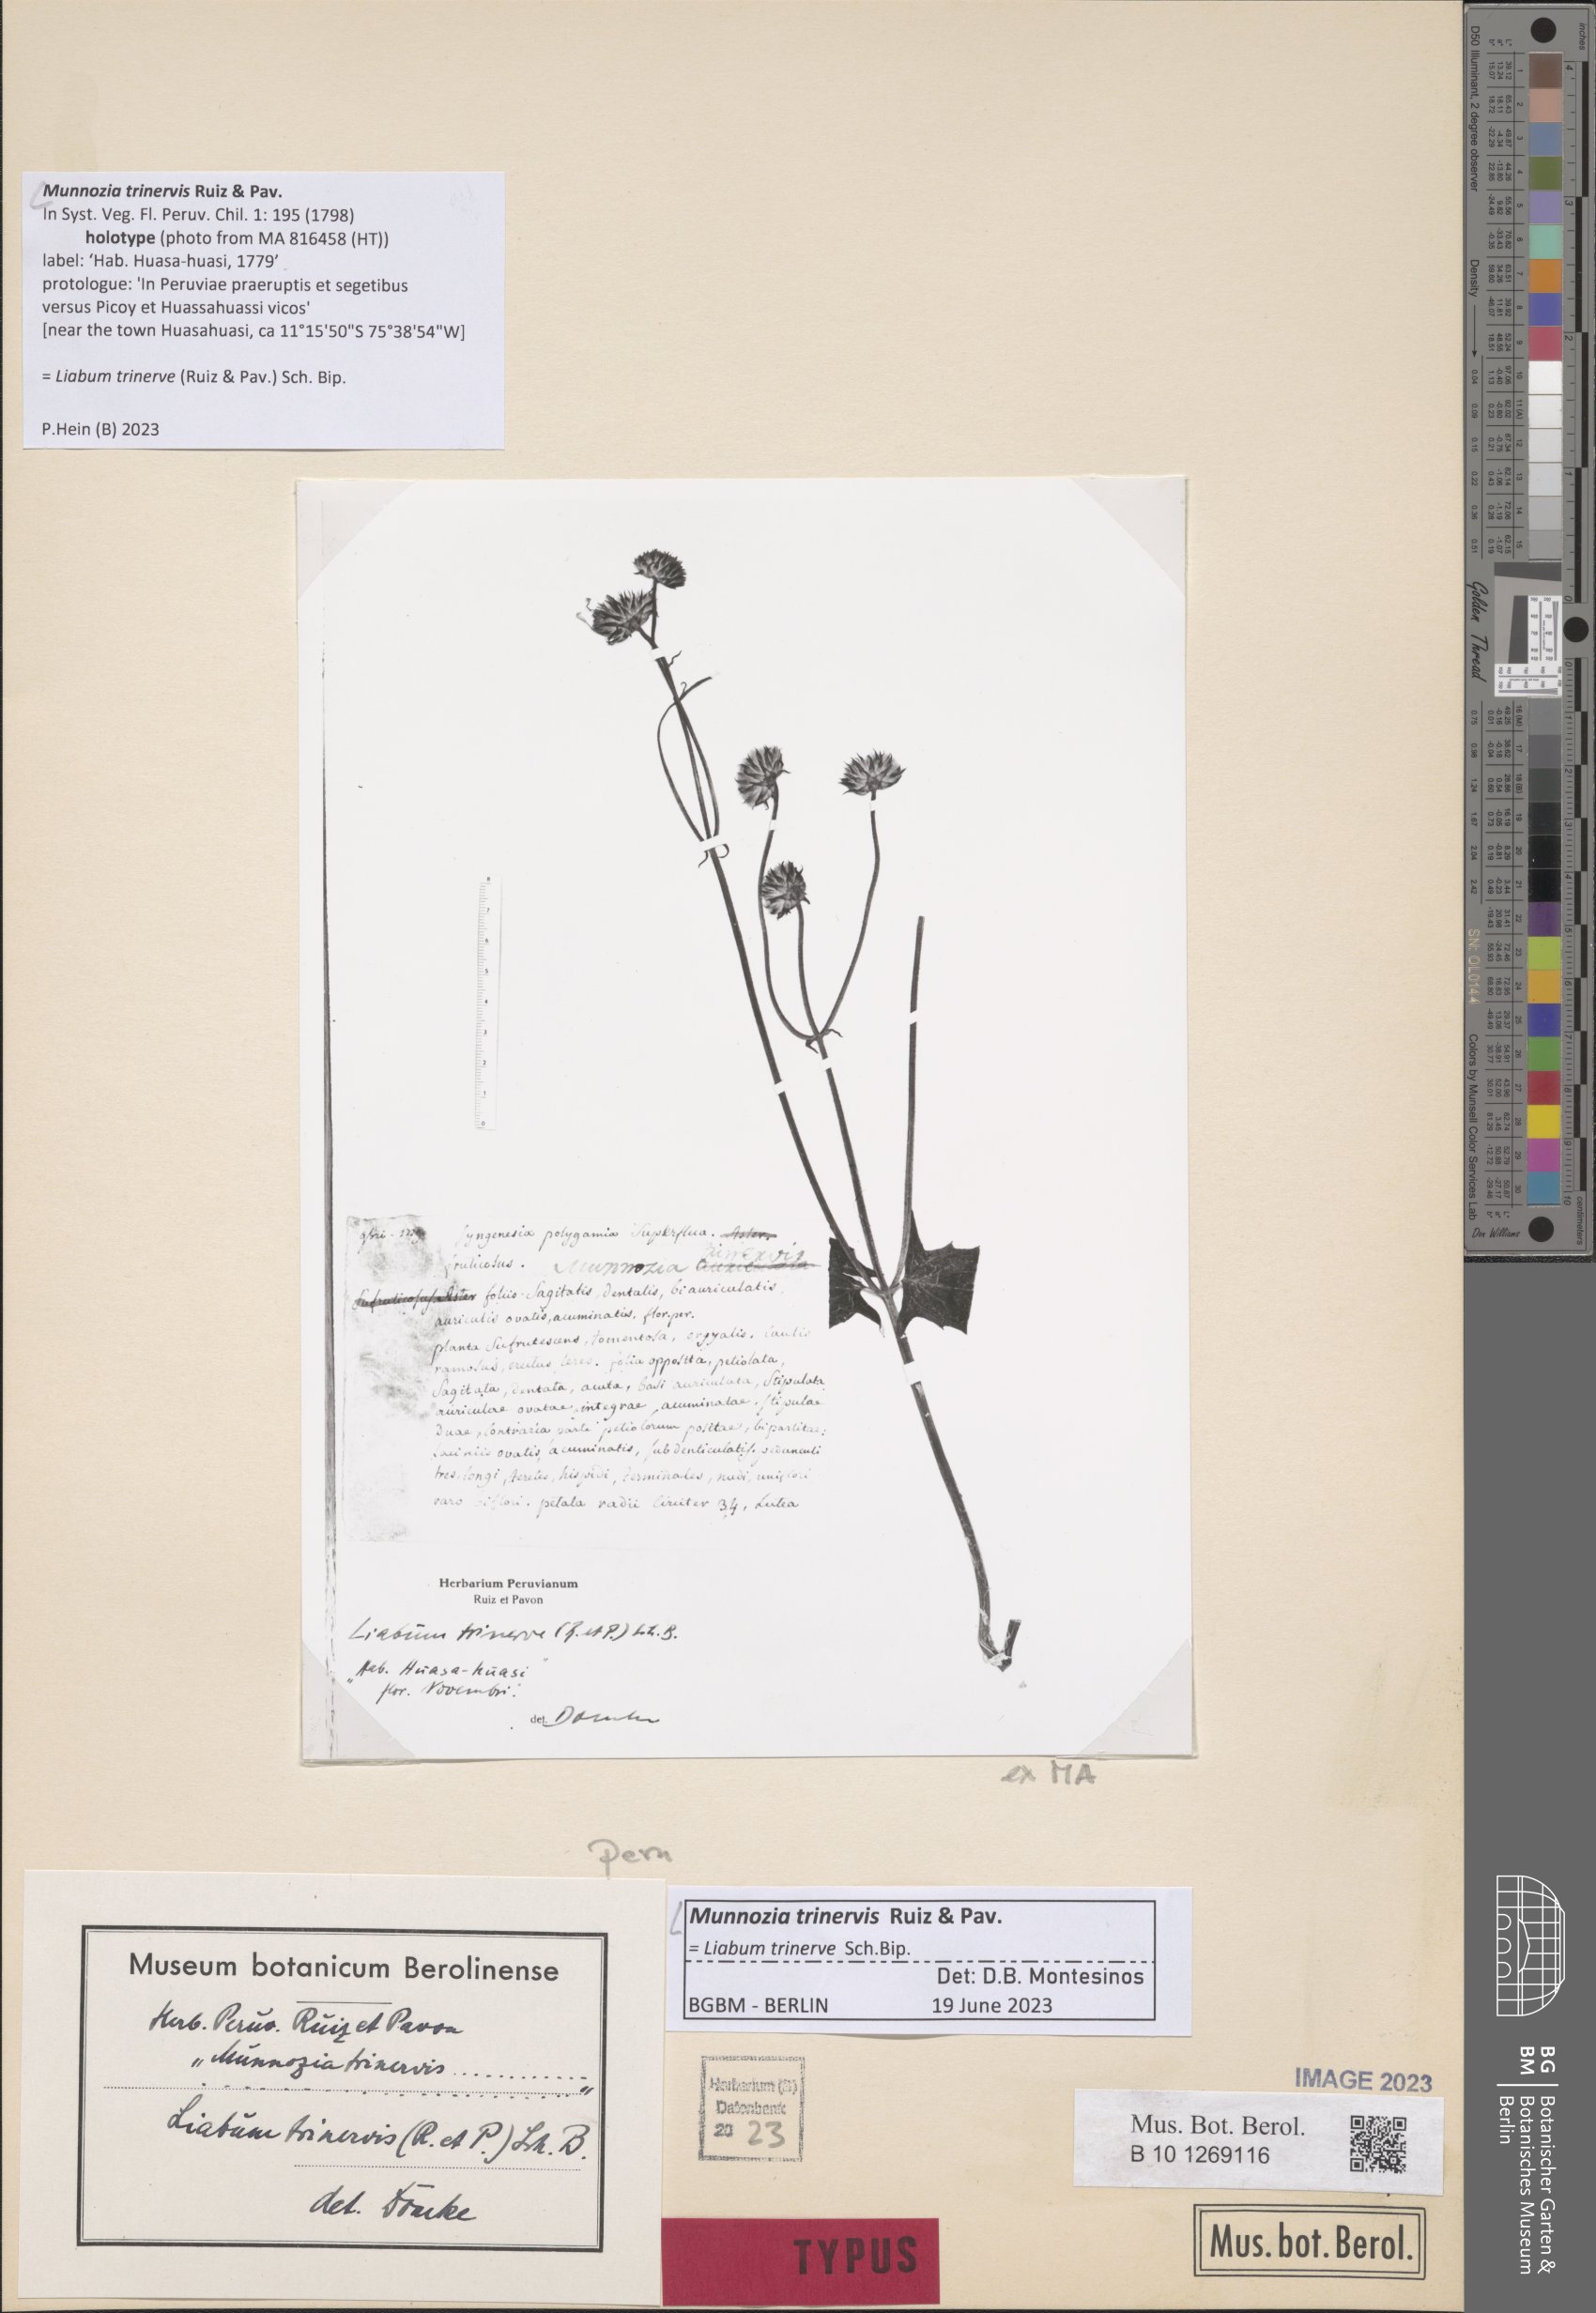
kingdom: Plantae
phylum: Tracheophyta
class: Magnoliopsida
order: Asterales
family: Asteraceae
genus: Munnozia
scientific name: Munnozia trinervis
